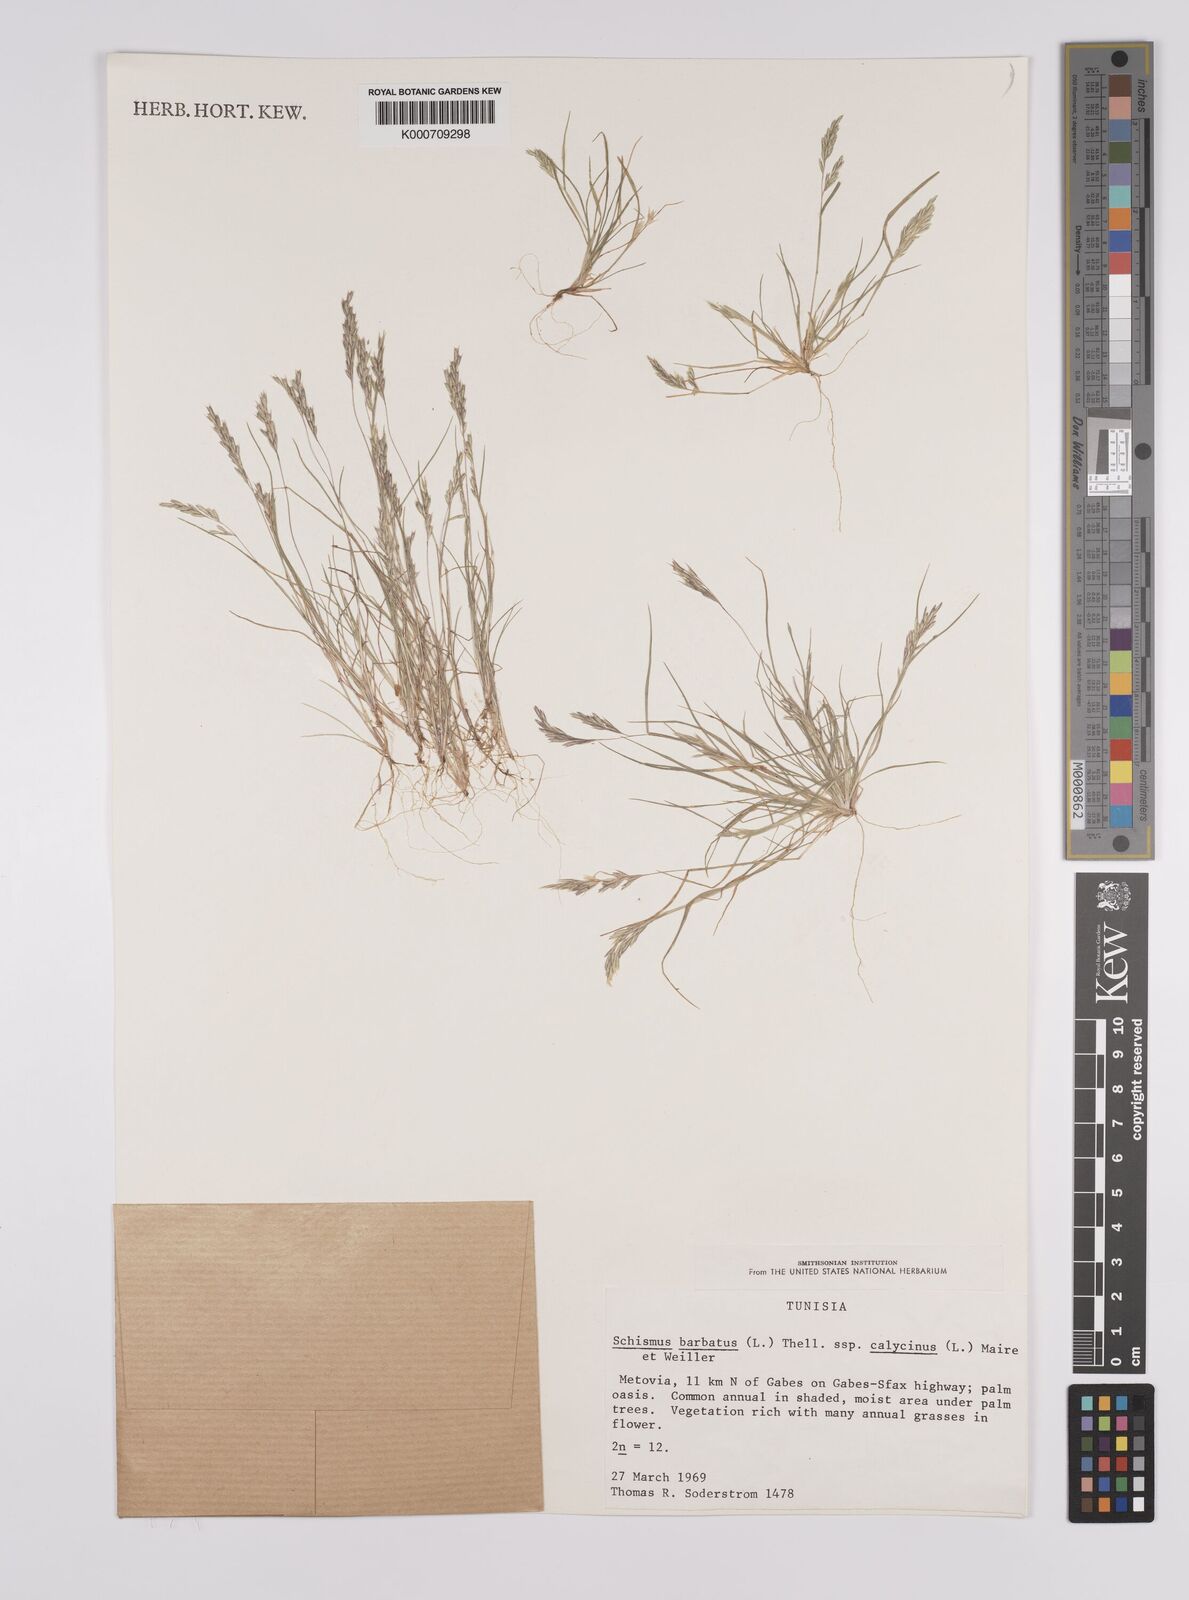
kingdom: Plantae
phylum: Tracheophyta
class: Liliopsida
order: Poales
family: Poaceae
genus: Schismus
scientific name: Schismus barbatus
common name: Kelch-grass
